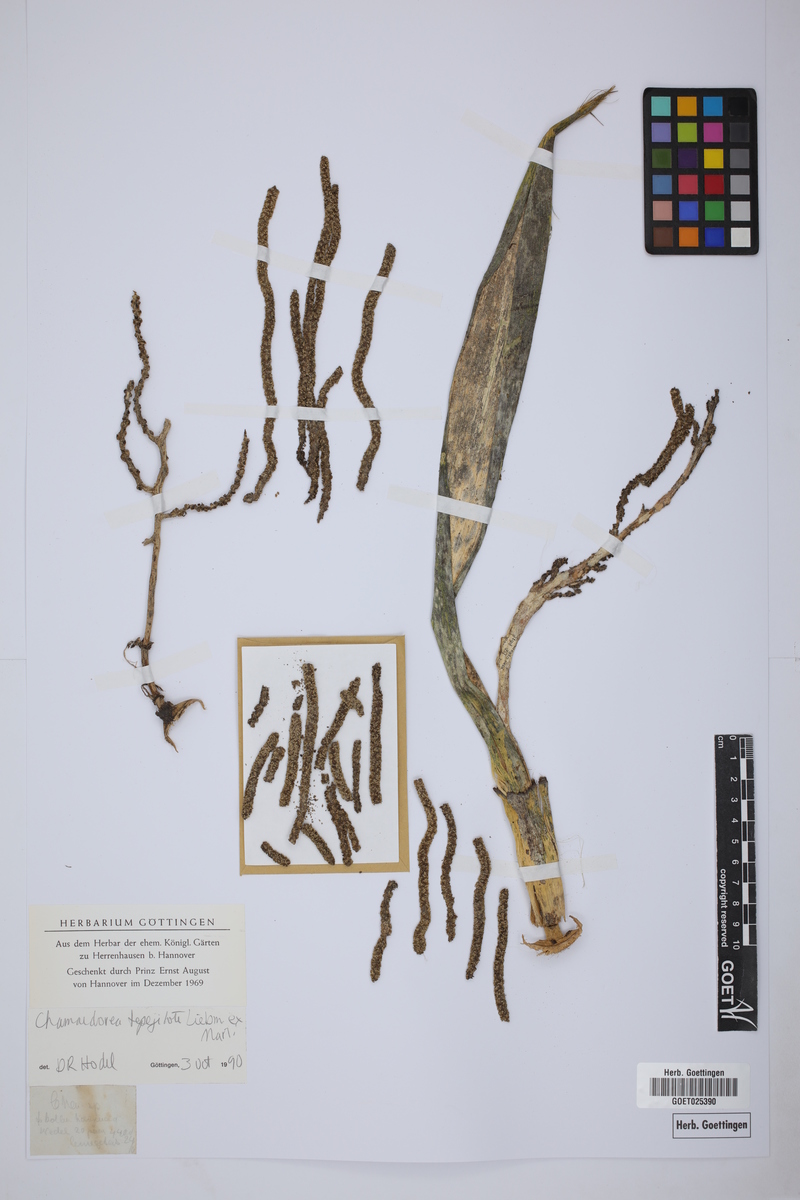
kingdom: Plantae
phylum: Tracheophyta
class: Liliopsida
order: Arecales
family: Arecaceae
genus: Chamaedorea
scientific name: Chamaedorea tepejilote
